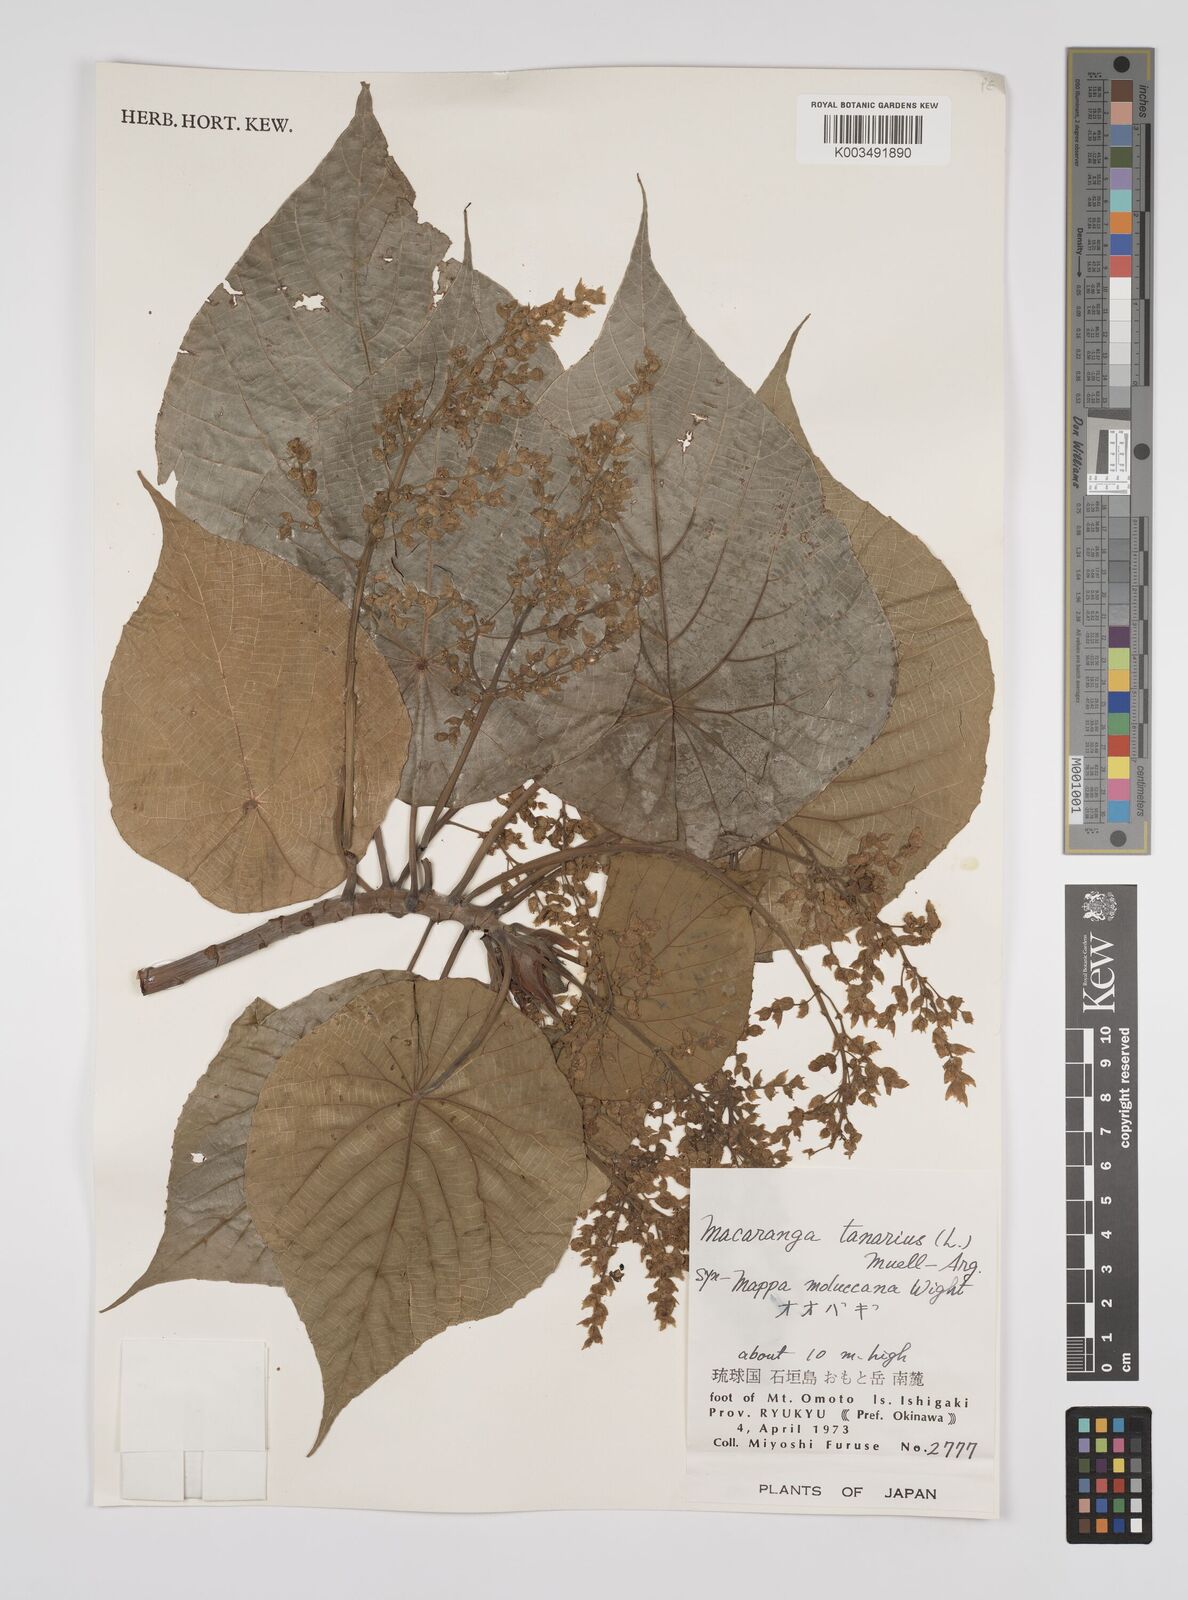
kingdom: Plantae
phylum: Tracheophyta
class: Magnoliopsida
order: Malpighiales
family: Euphorbiaceae
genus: Macaranga
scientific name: Macaranga tanarius
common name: Parasol leaf tree
